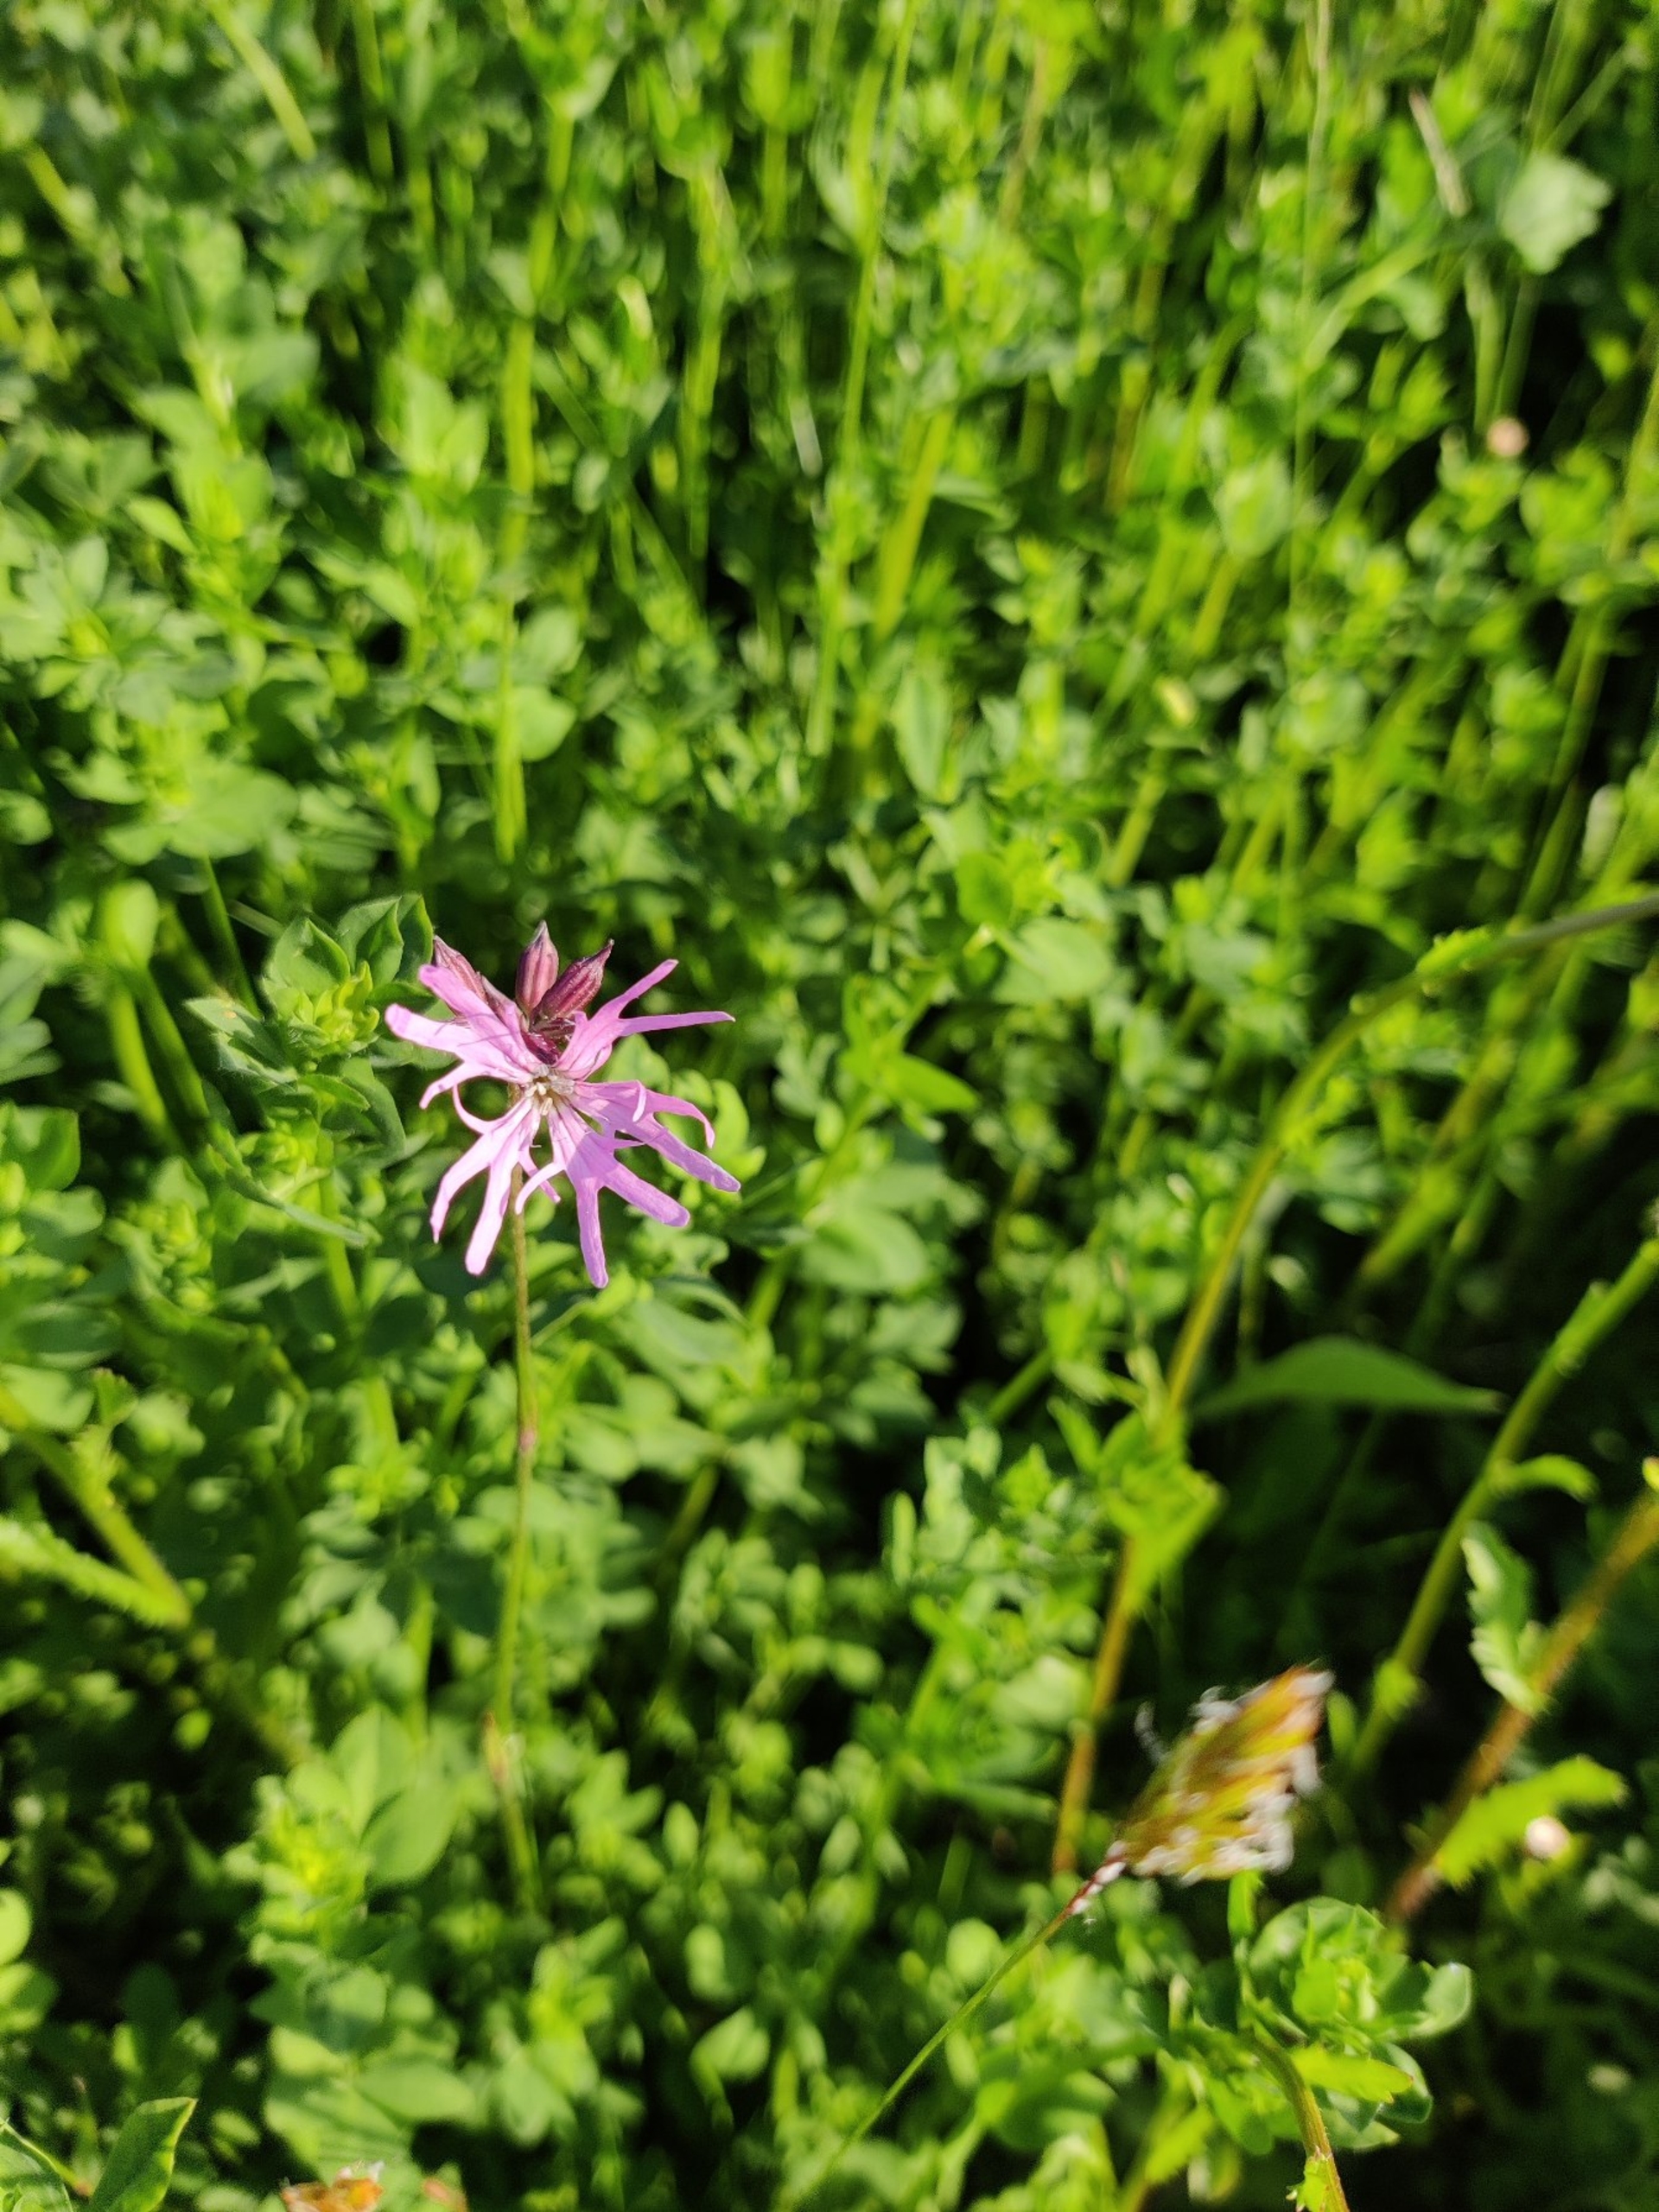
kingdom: Plantae
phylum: Tracheophyta
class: Magnoliopsida
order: Caryophyllales
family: Caryophyllaceae
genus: Silene
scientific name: Silene flos-cuculi
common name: Trævlekrone
